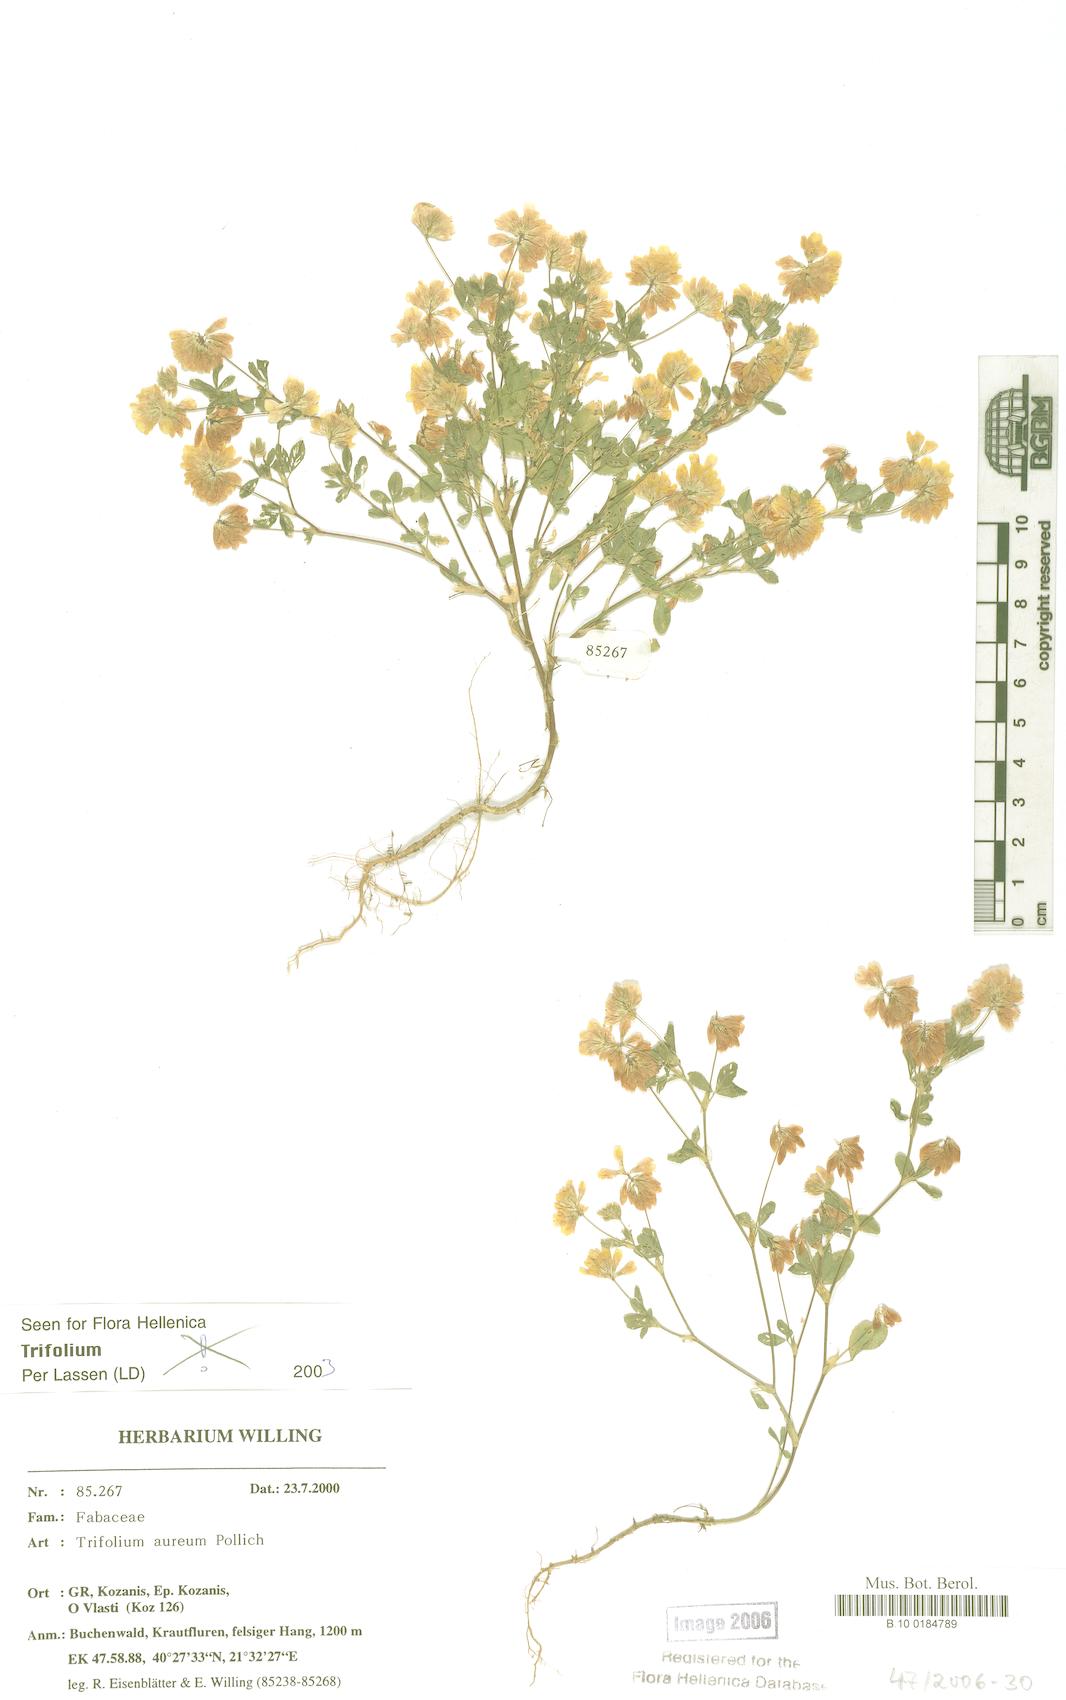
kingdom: Plantae
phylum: Tracheophyta
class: Magnoliopsida
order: Fabales
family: Fabaceae
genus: Trifolium
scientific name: Trifolium aureum
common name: Golden clover
